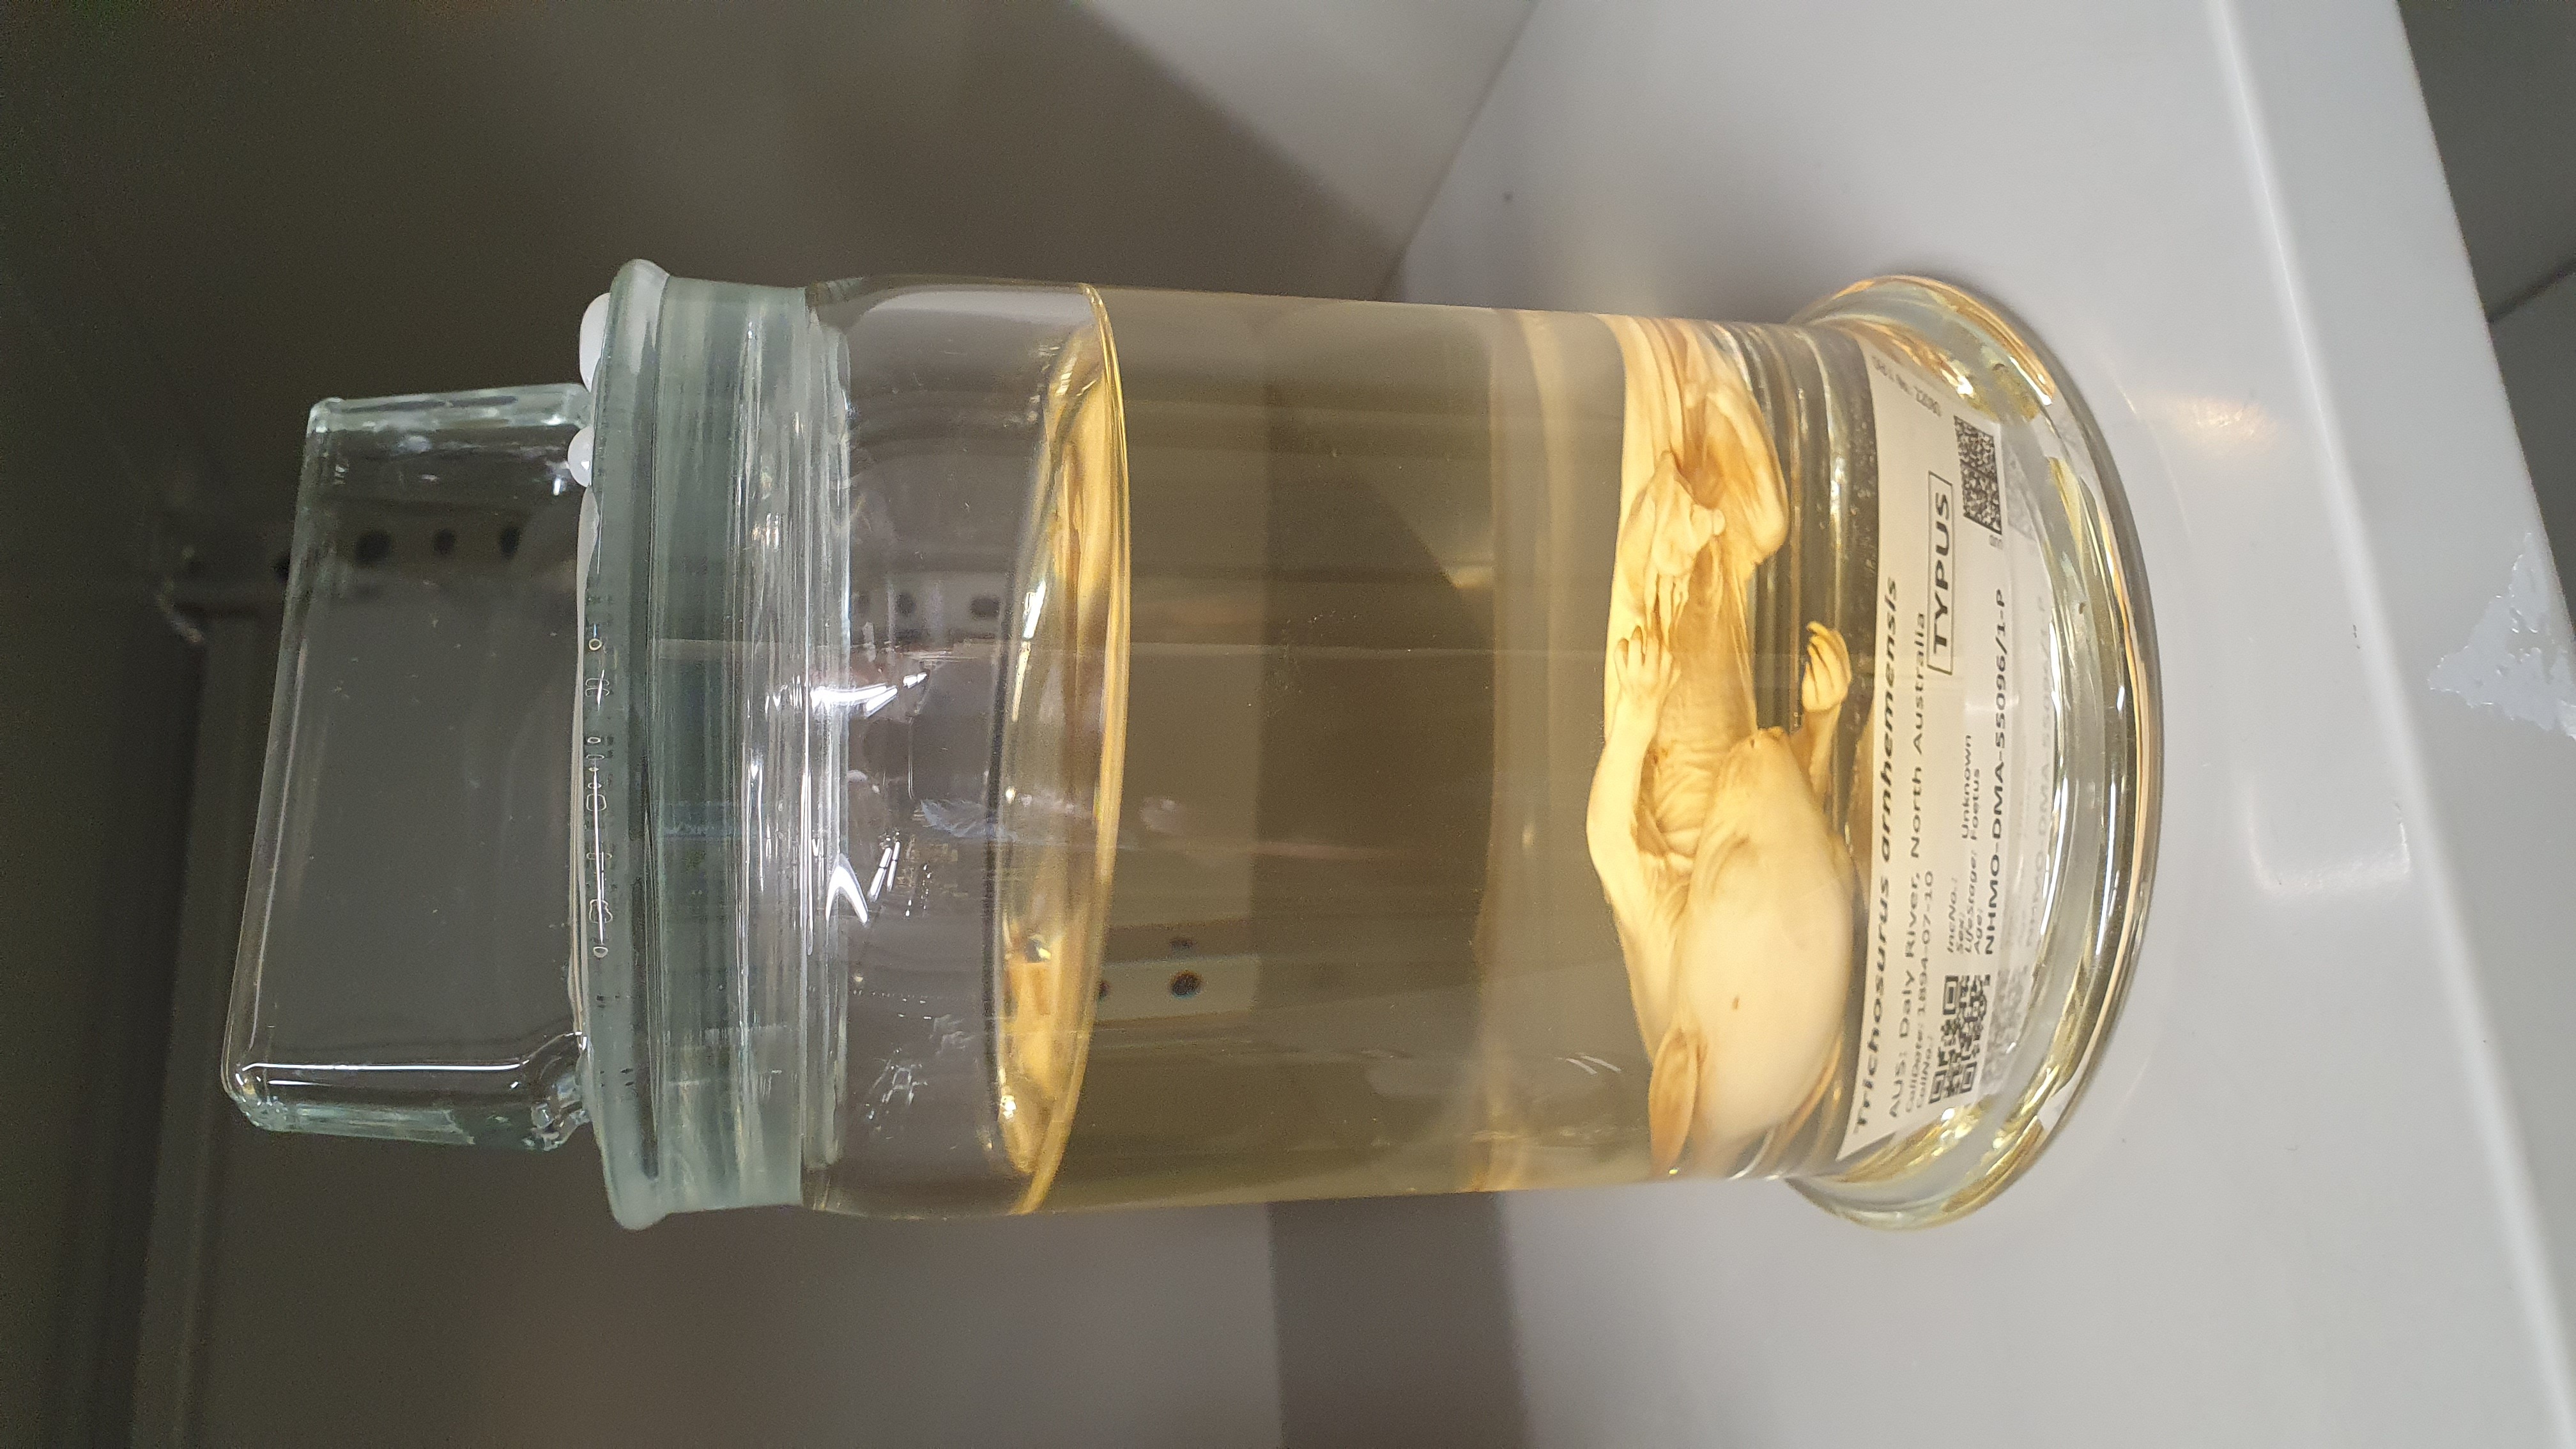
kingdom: Animalia
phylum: Chordata
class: Mammalia
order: Diprotodontia
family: Phalangeridae
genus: Trichosurus
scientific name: Trichosurus arnhemensis
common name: Northern brushtail
